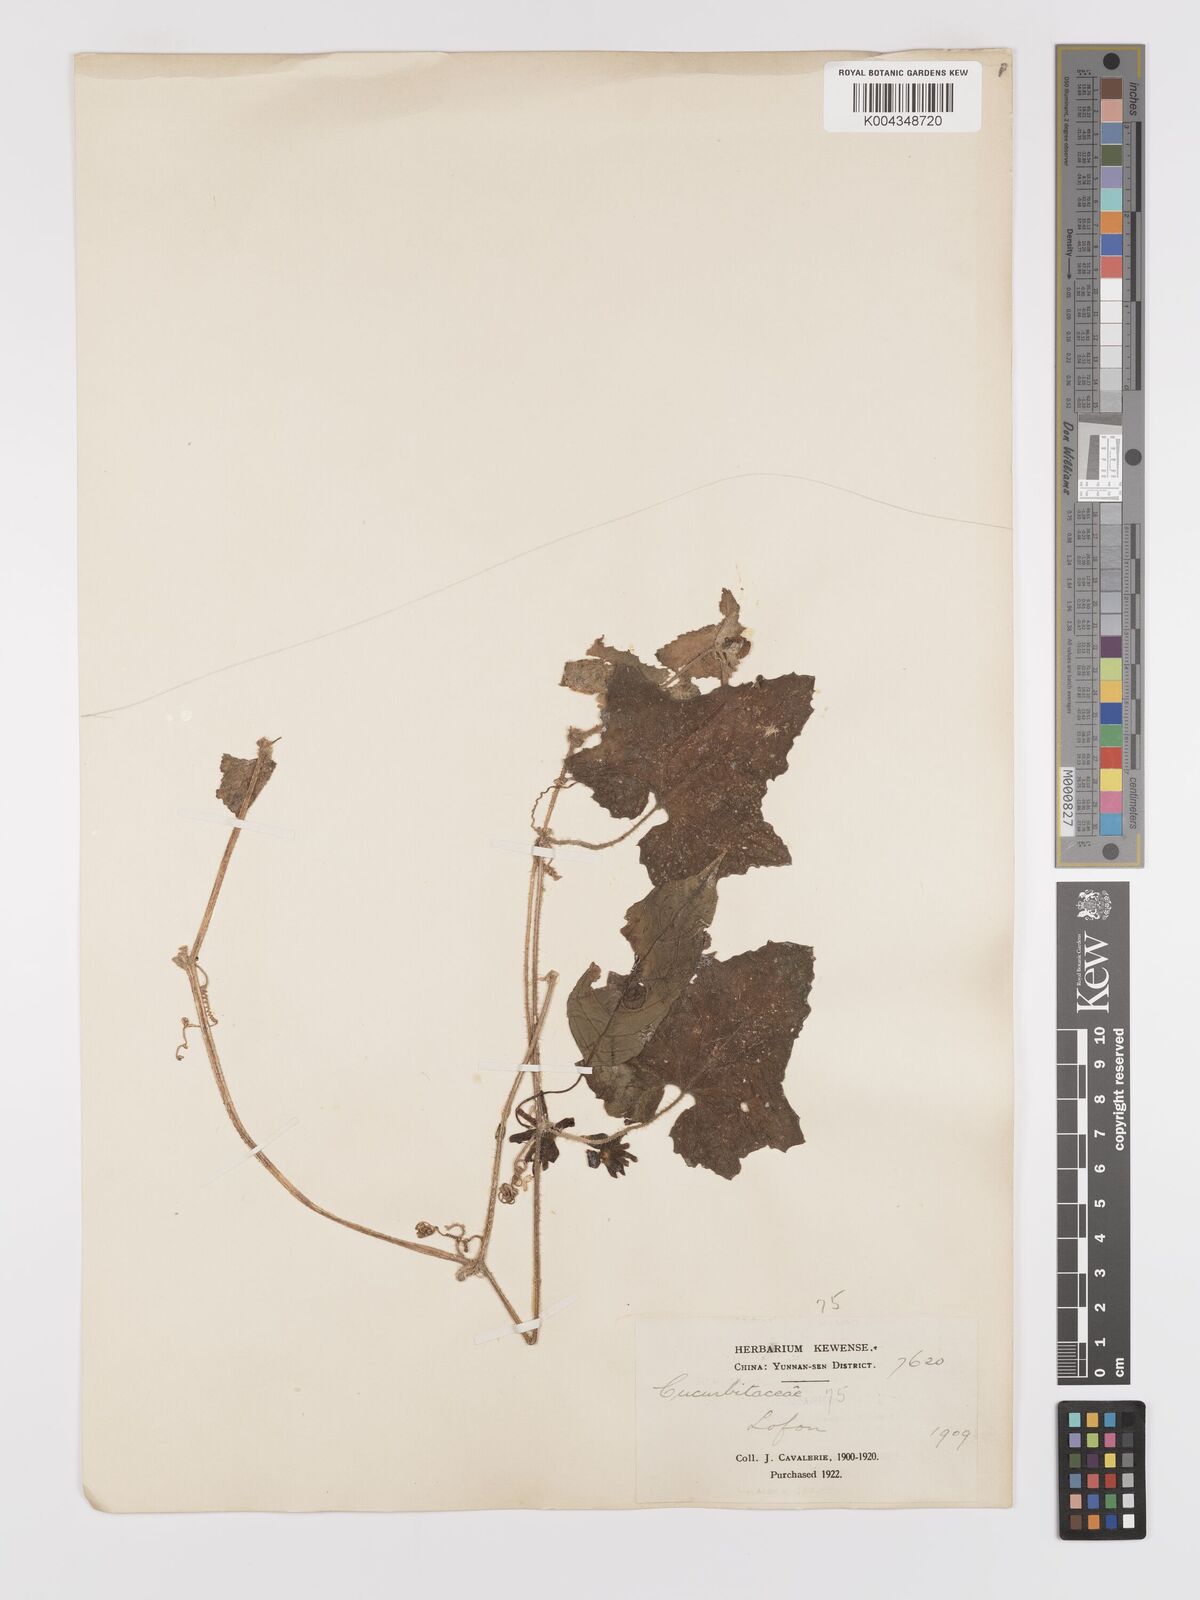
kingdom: Plantae
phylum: Tracheophyta
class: Magnoliopsida
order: Cucurbitales
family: Cucurbitaceae
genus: Cucumis
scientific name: Cucumis maderaspatanus
